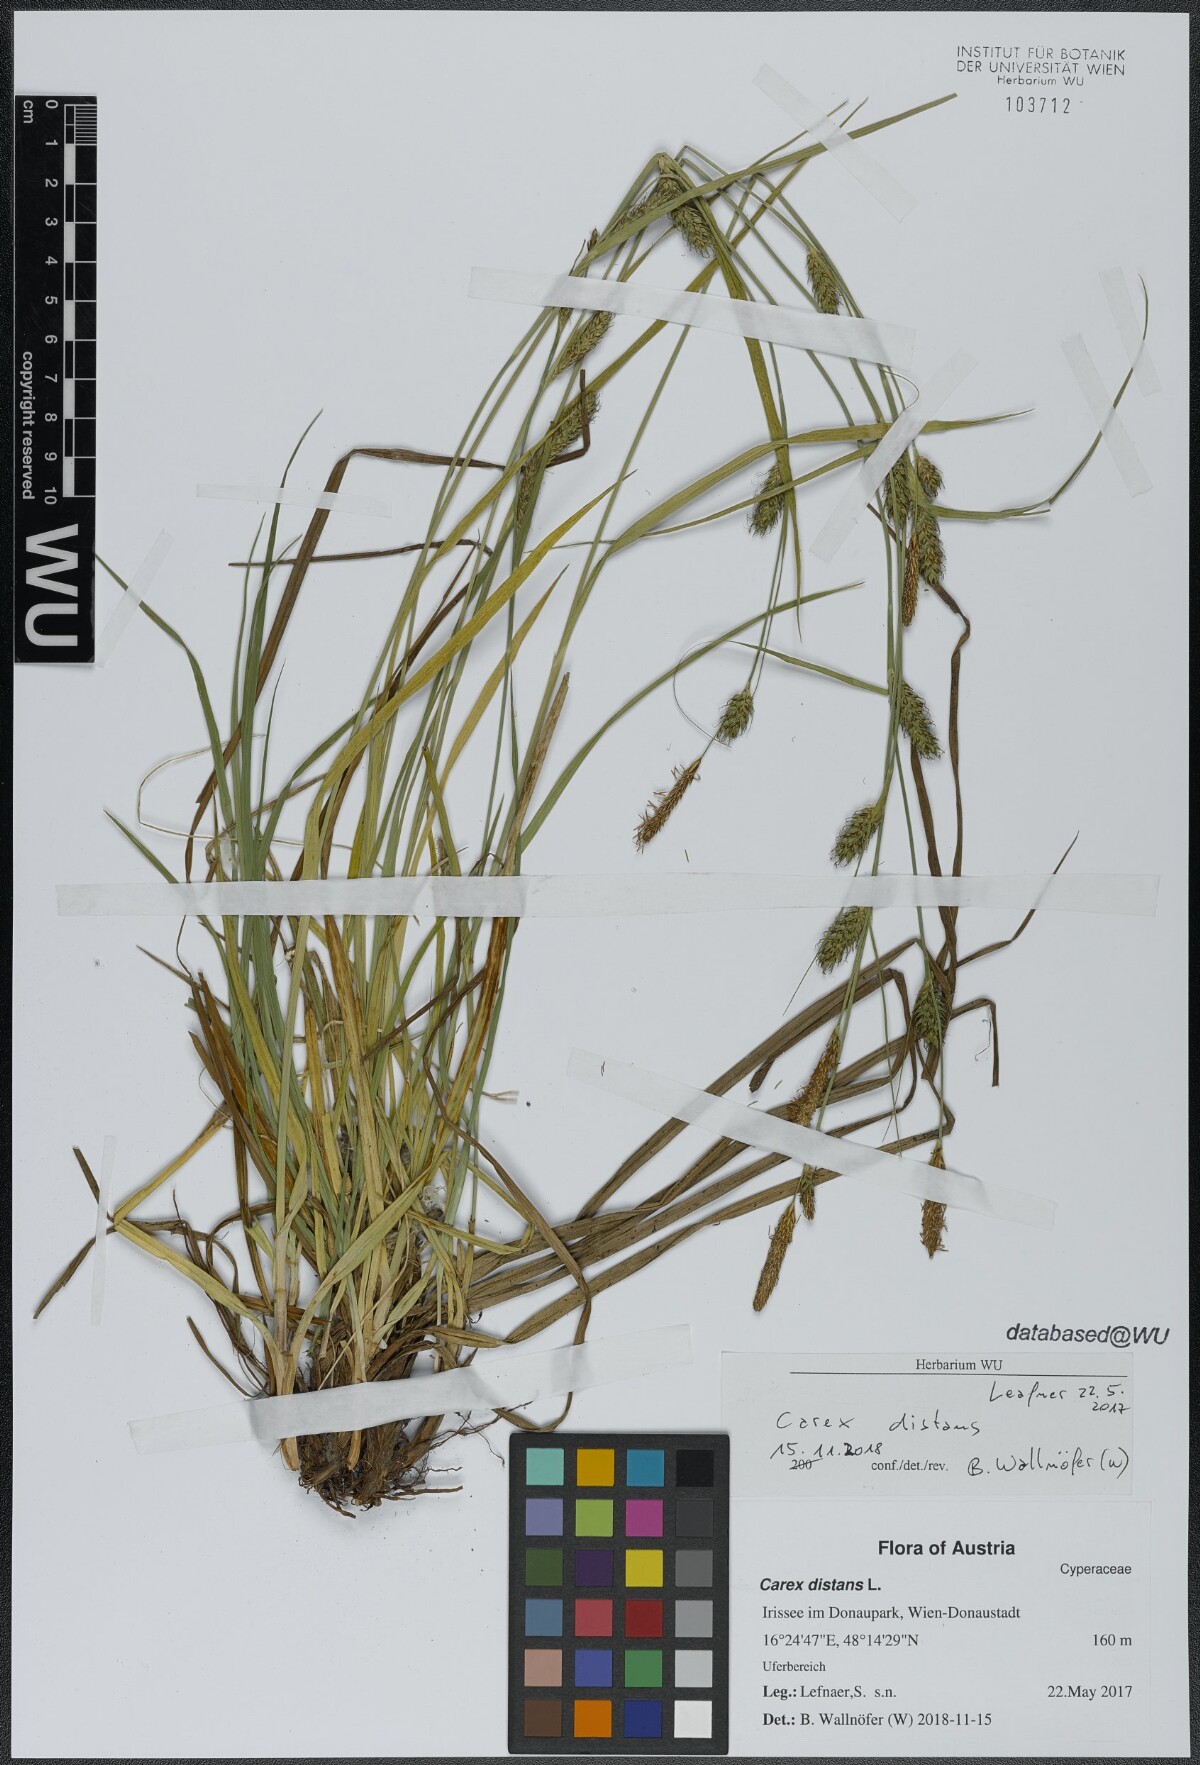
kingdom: Plantae
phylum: Tracheophyta
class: Liliopsida
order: Poales
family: Cyperaceae
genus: Carex
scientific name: Carex distans
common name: Distant sedge
